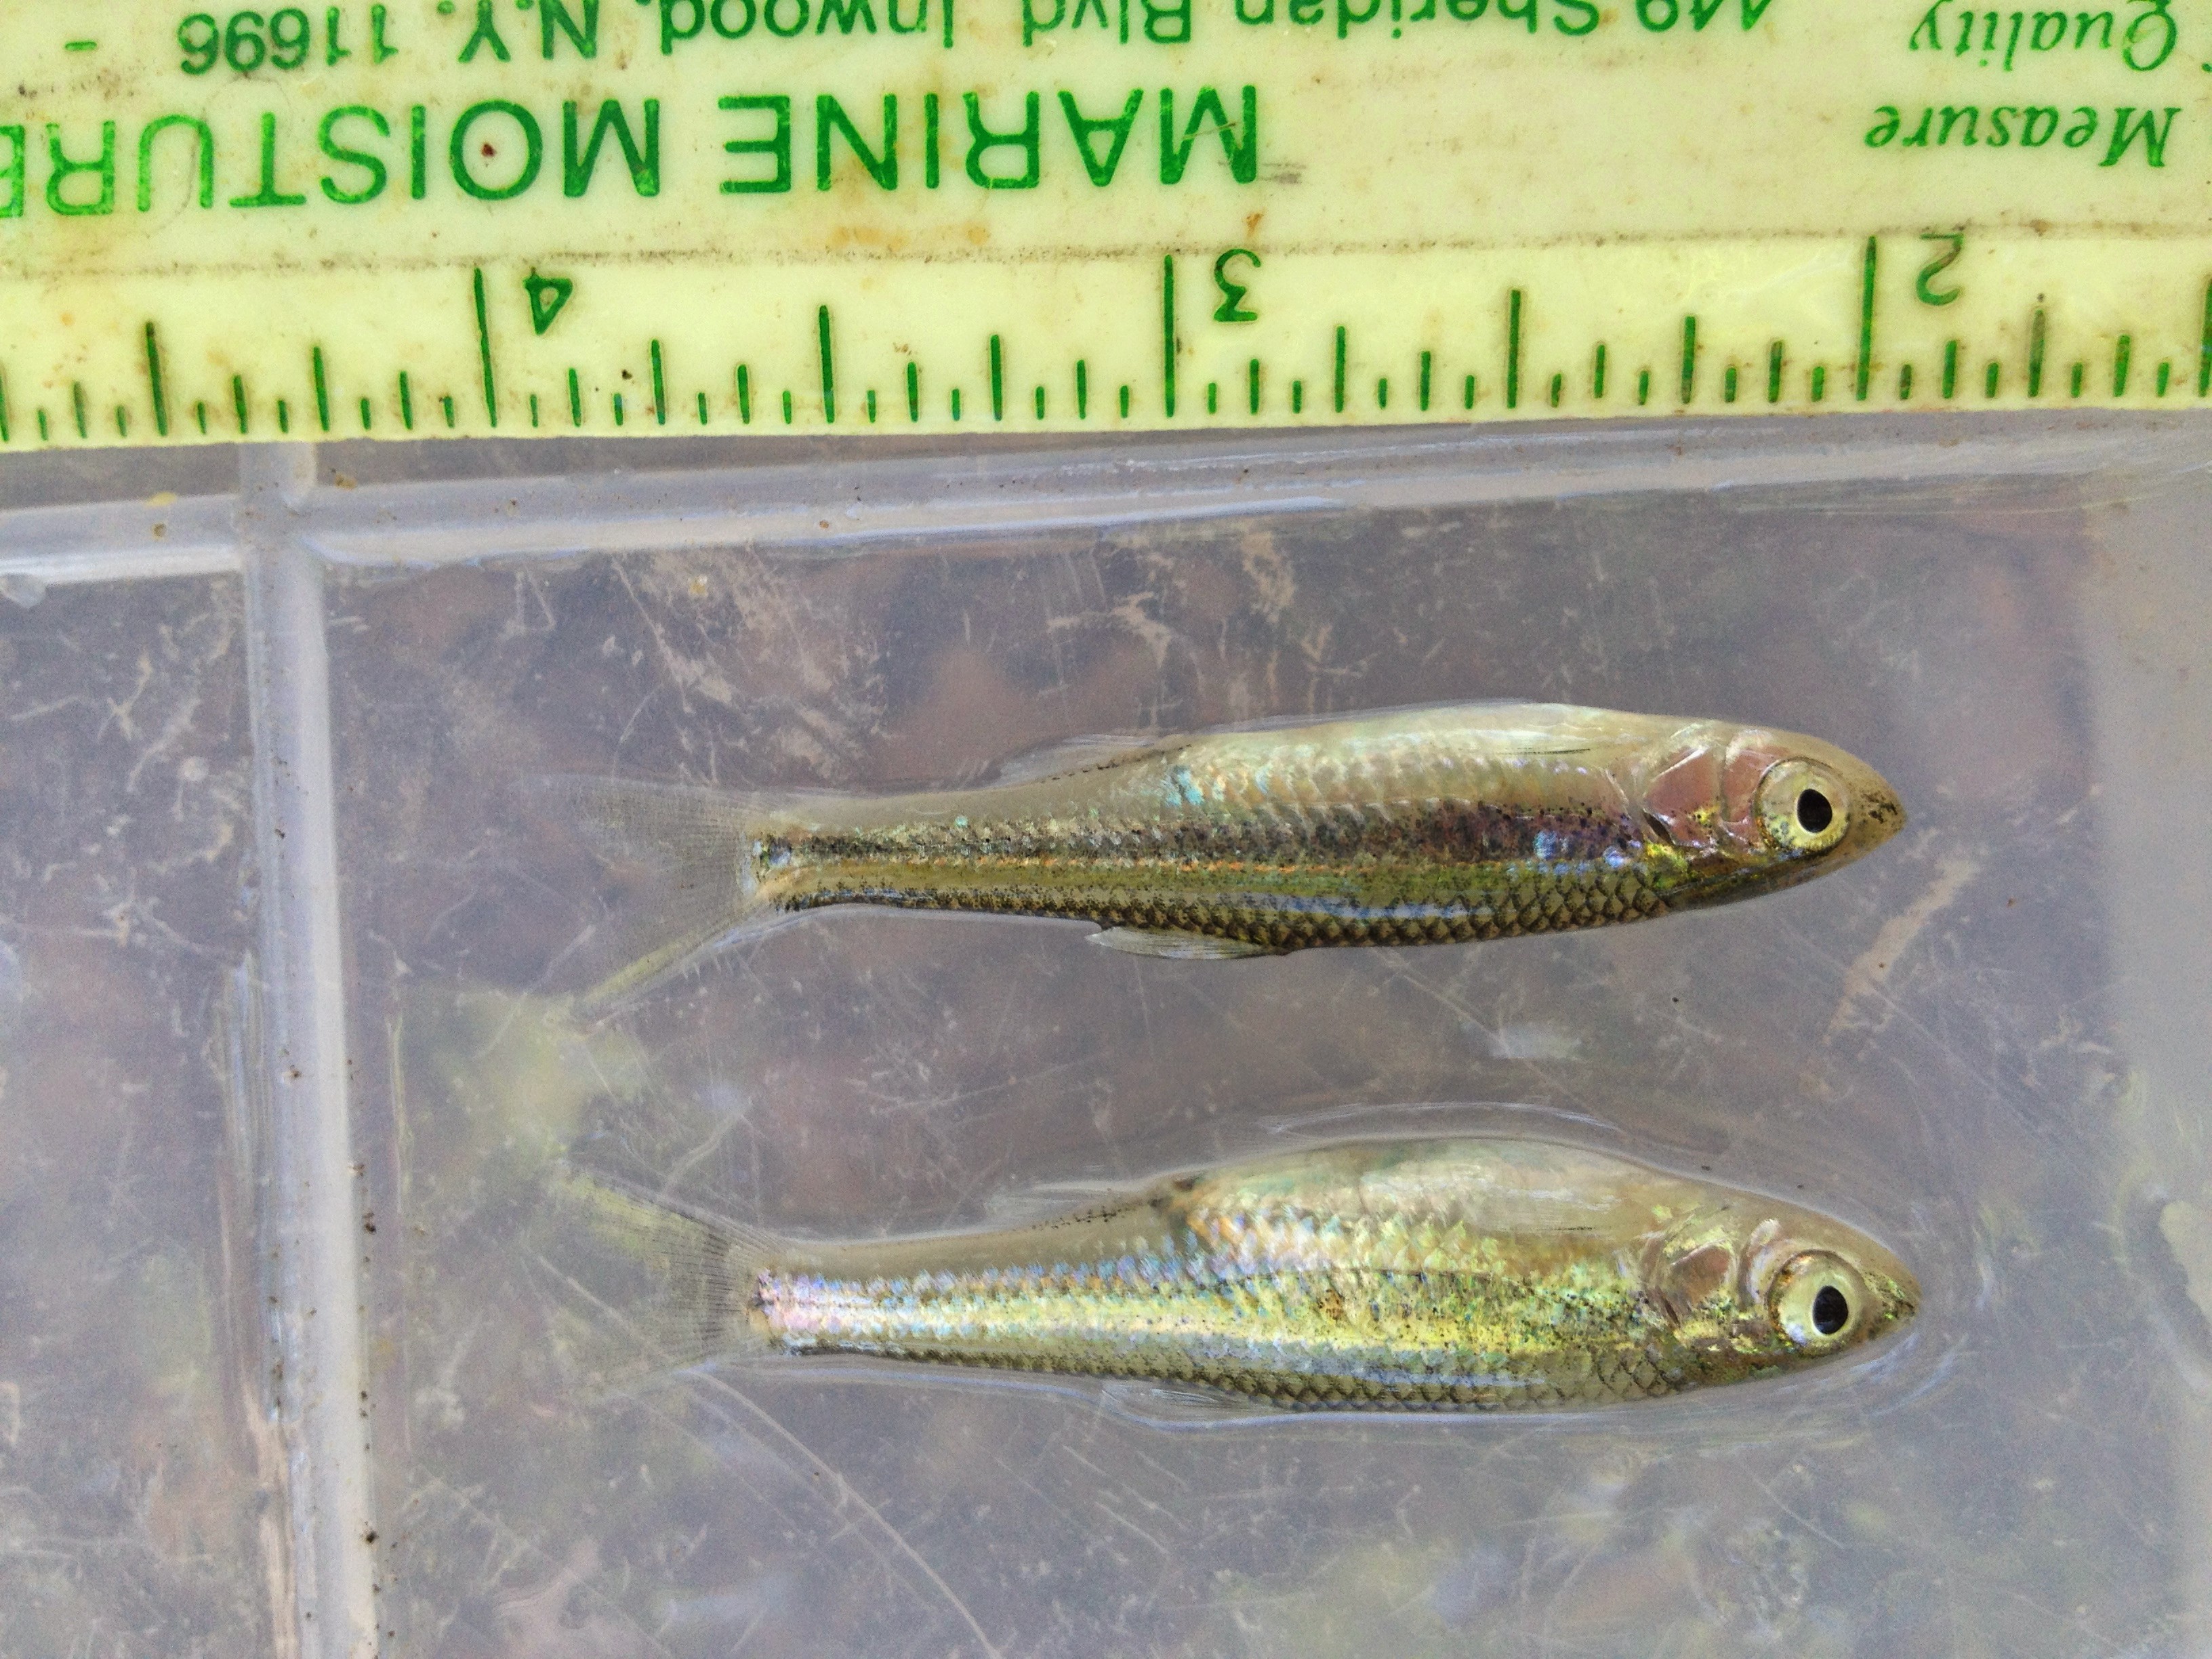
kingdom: Animalia
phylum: Chordata
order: Cypriniformes
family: Cyprinidae
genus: Notropis
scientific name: Notropis amabilis
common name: Texas shiner
